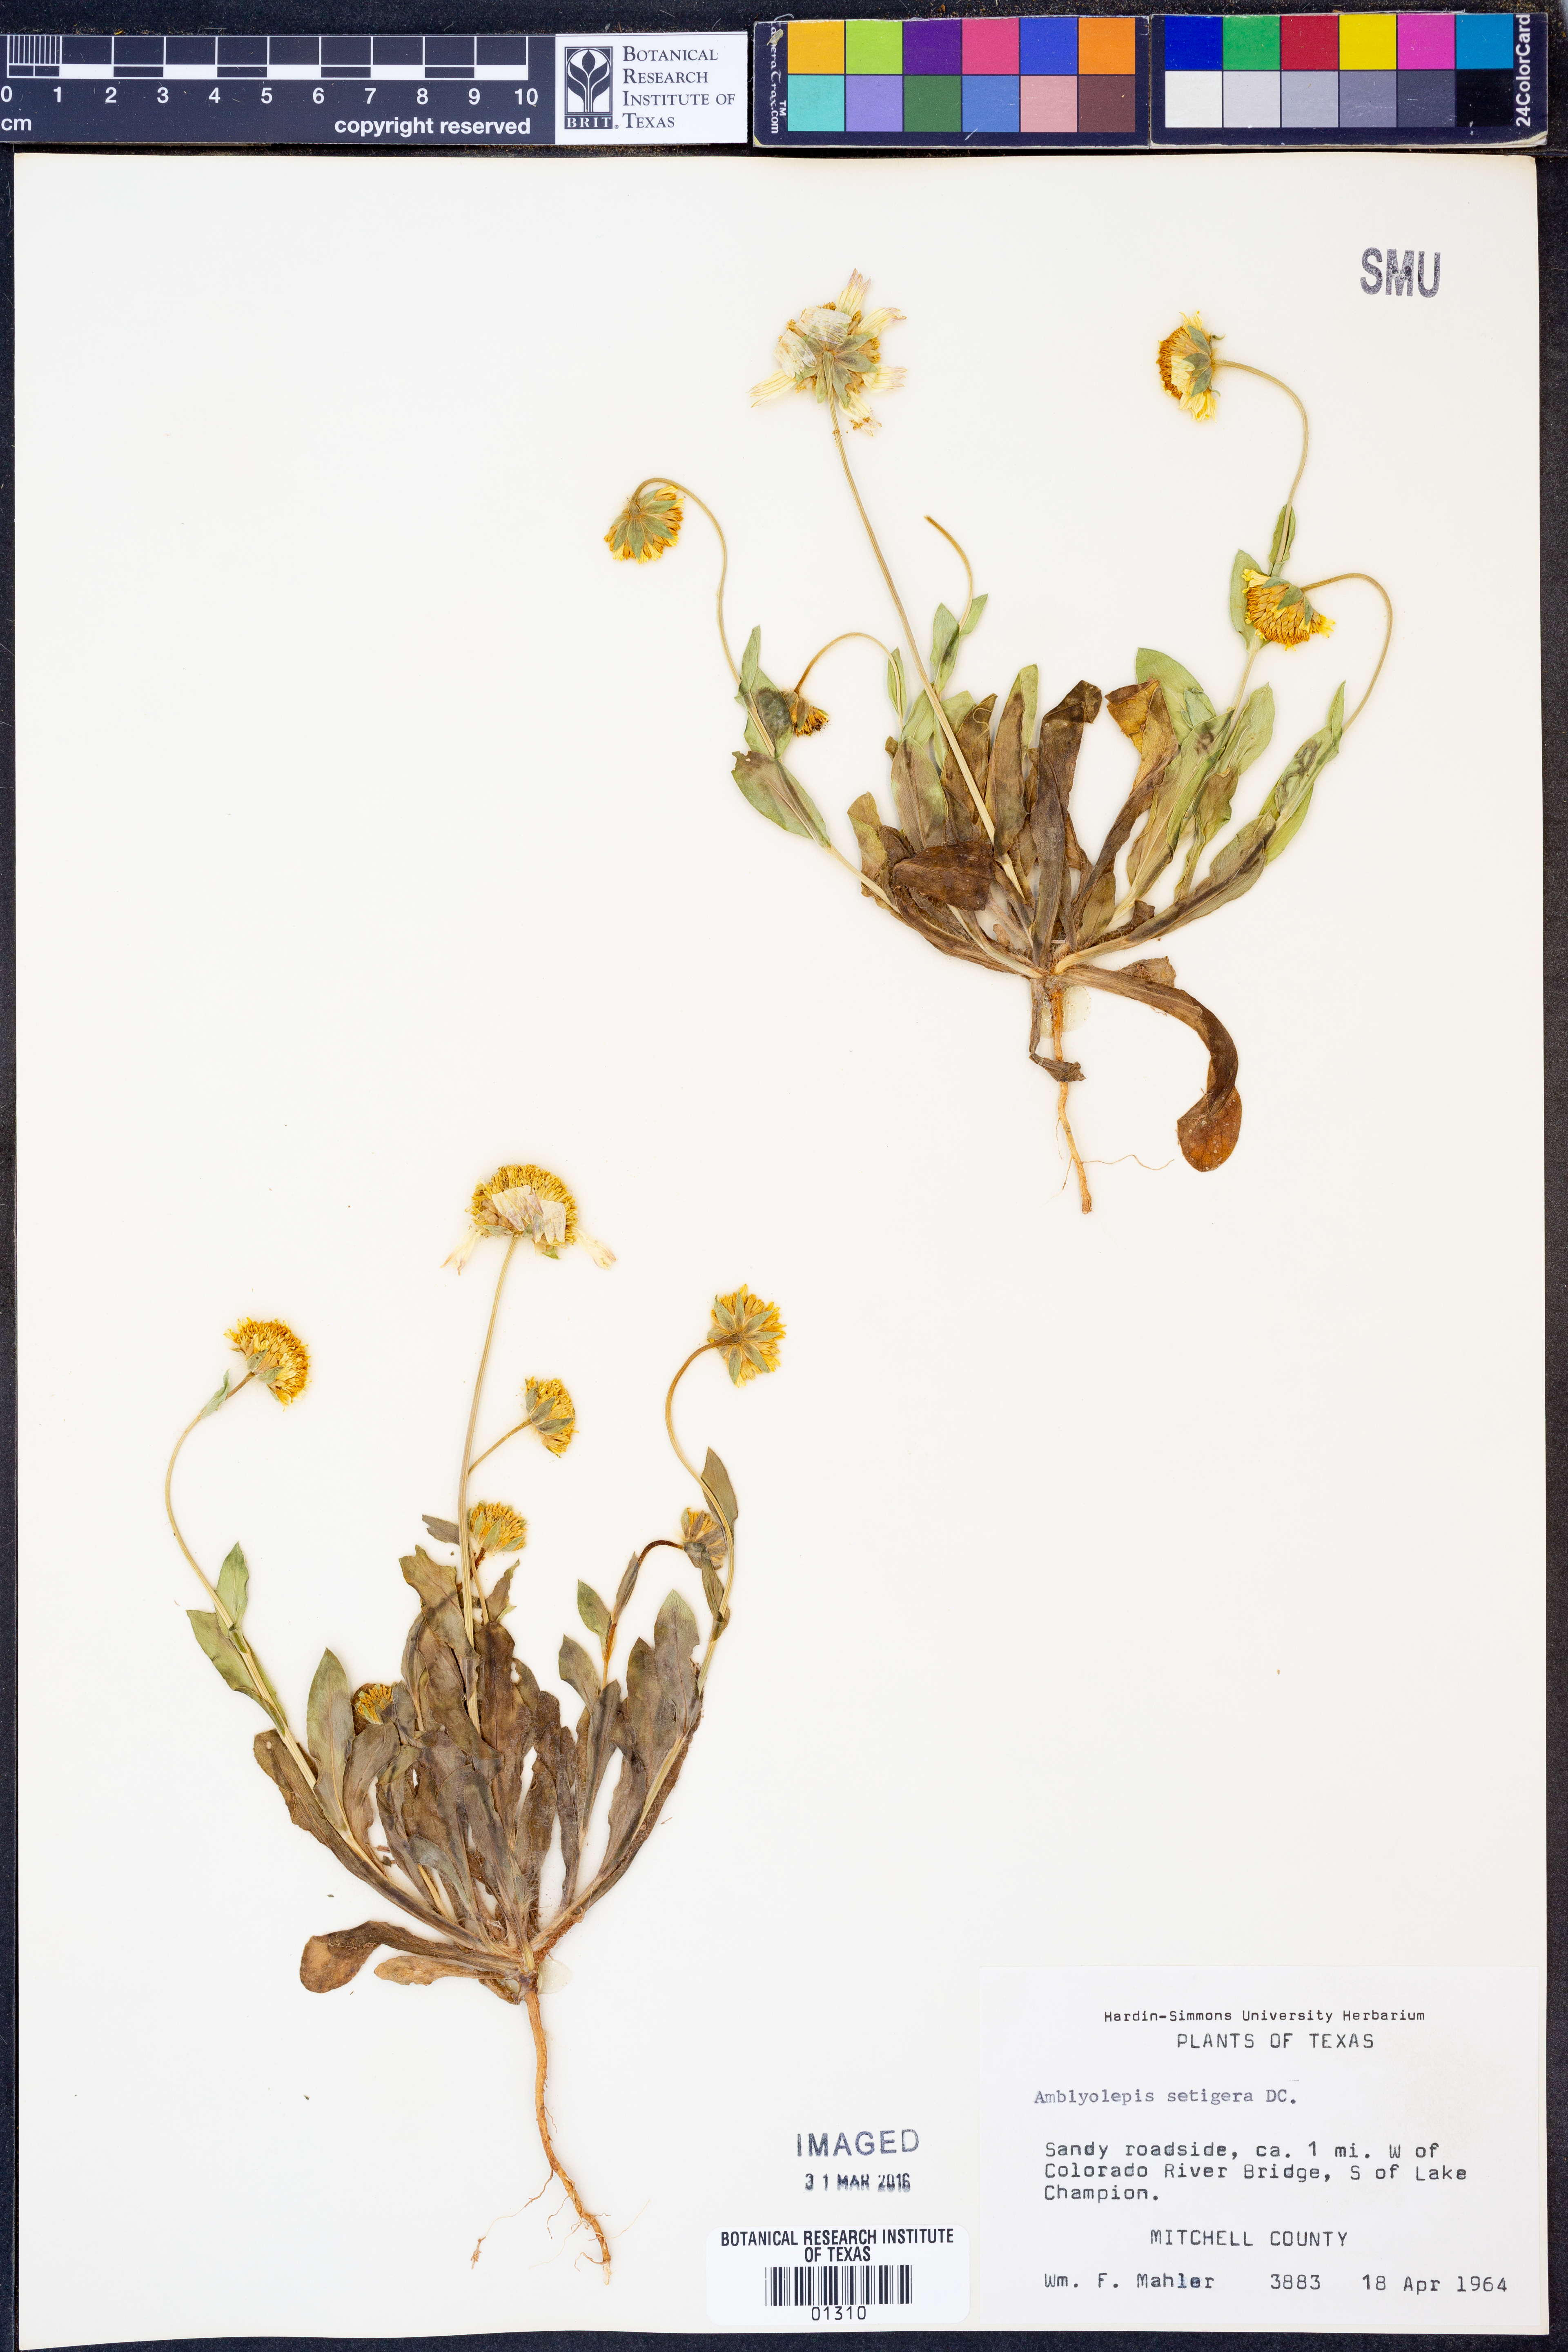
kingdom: Plantae
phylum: Tracheophyta
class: Magnoliopsida
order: Asterales
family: Asteraceae
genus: Amblyolepis
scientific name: Amblyolepis setigera
